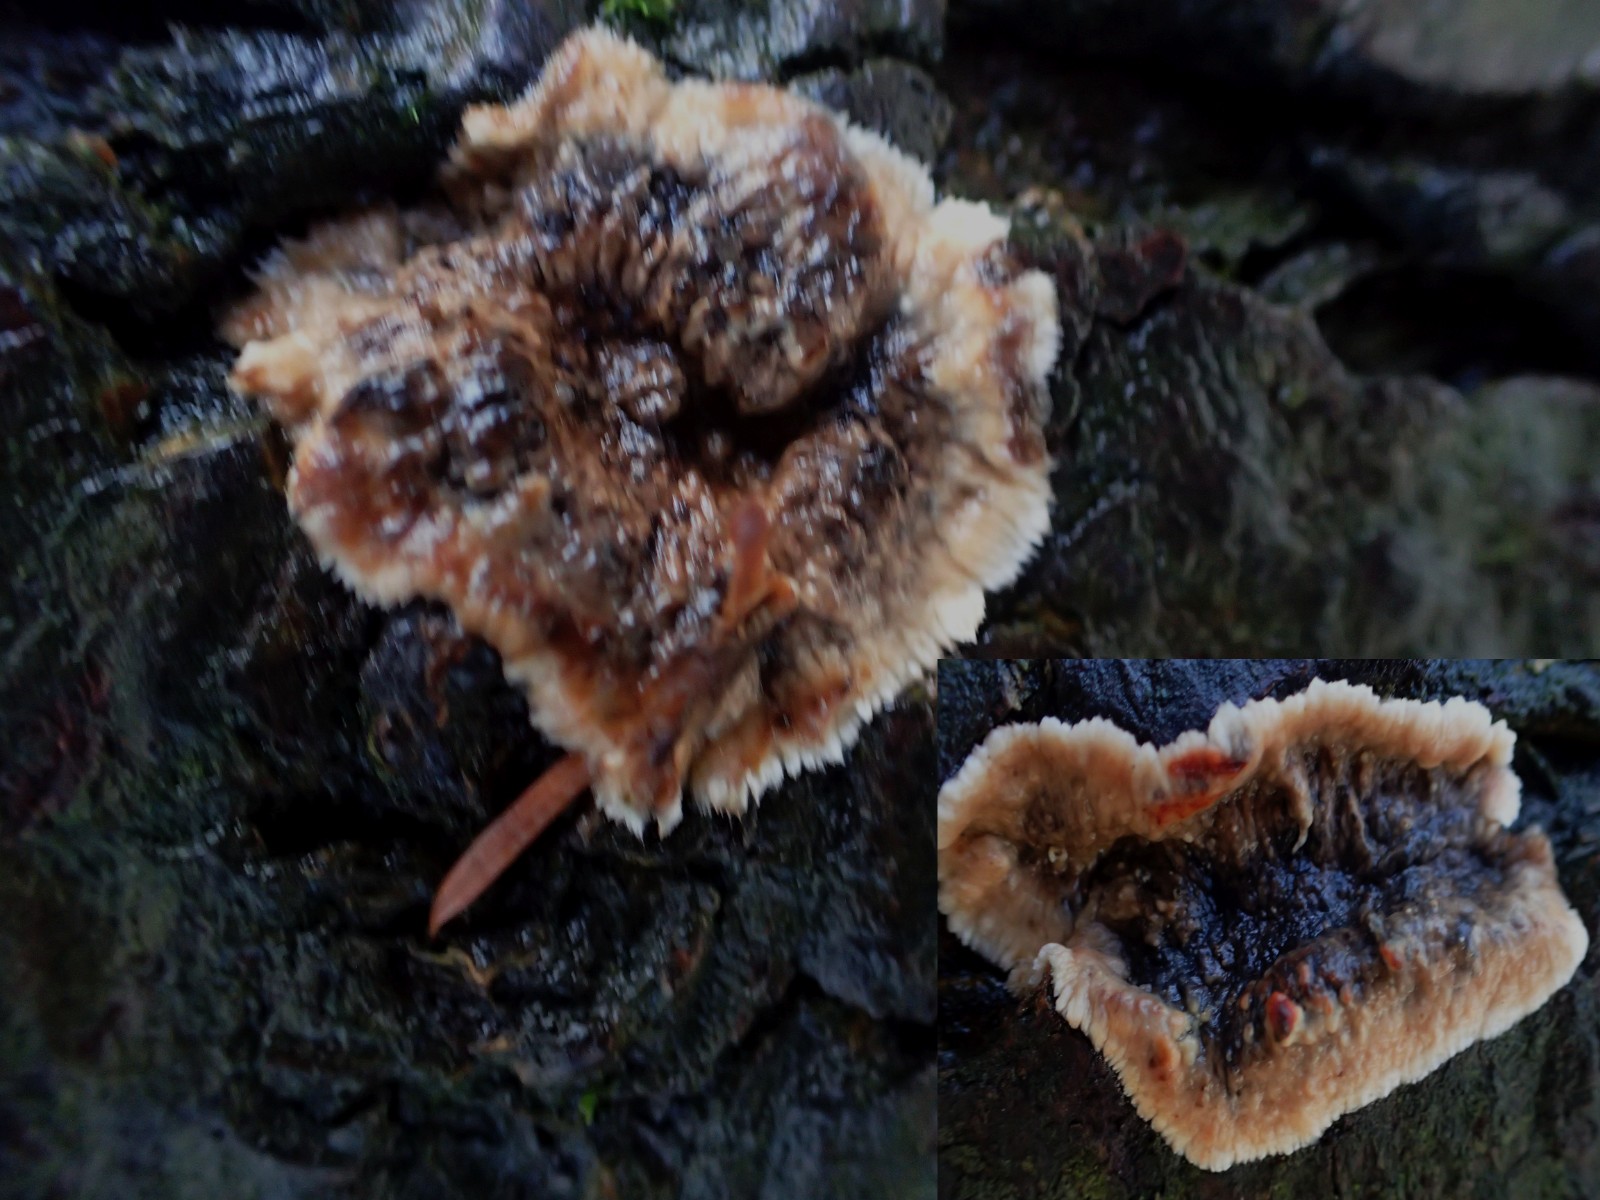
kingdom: Fungi
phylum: Basidiomycota
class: Agaricomycetes
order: Russulales
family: Stereaceae
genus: Stereum
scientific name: Stereum rugosum
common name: rynket lædersvamp
